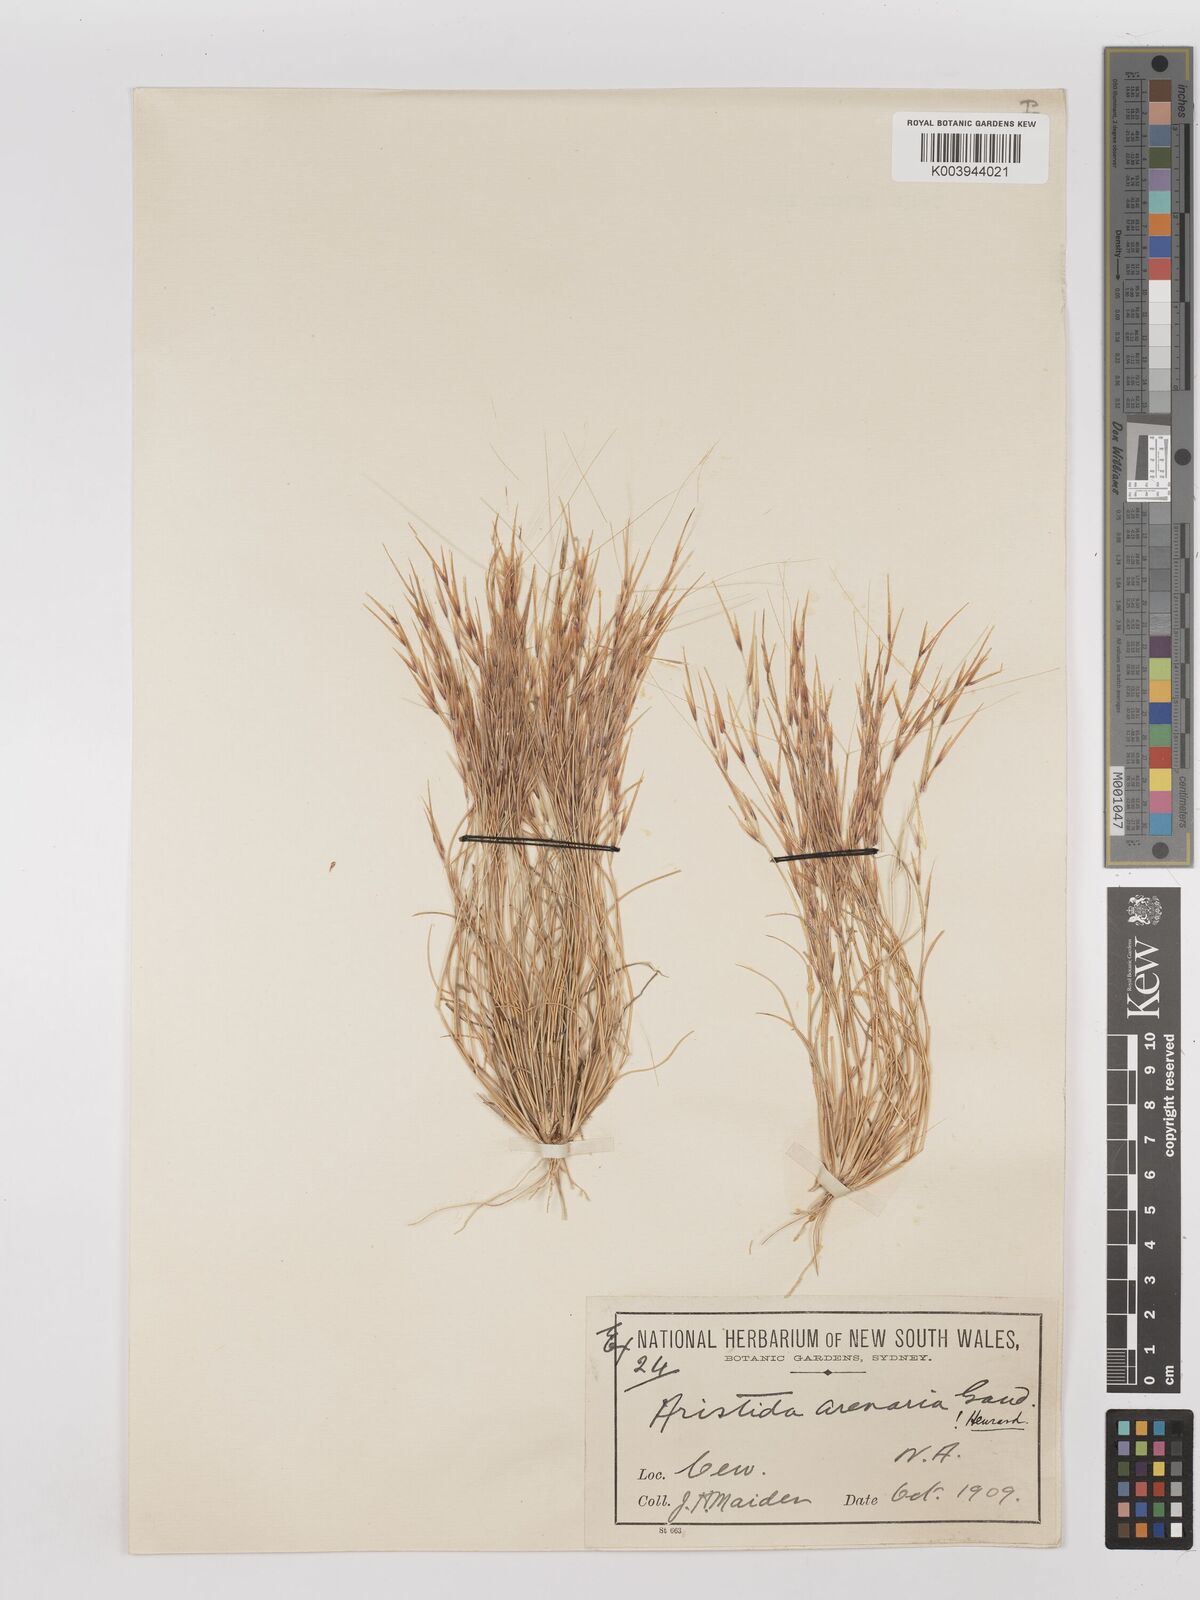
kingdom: Plantae
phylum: Tracheophyta
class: Liliopsida
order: Poales
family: Poaceae
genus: Aristida
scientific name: Aristida contorta
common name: Bunch kerosene grass
